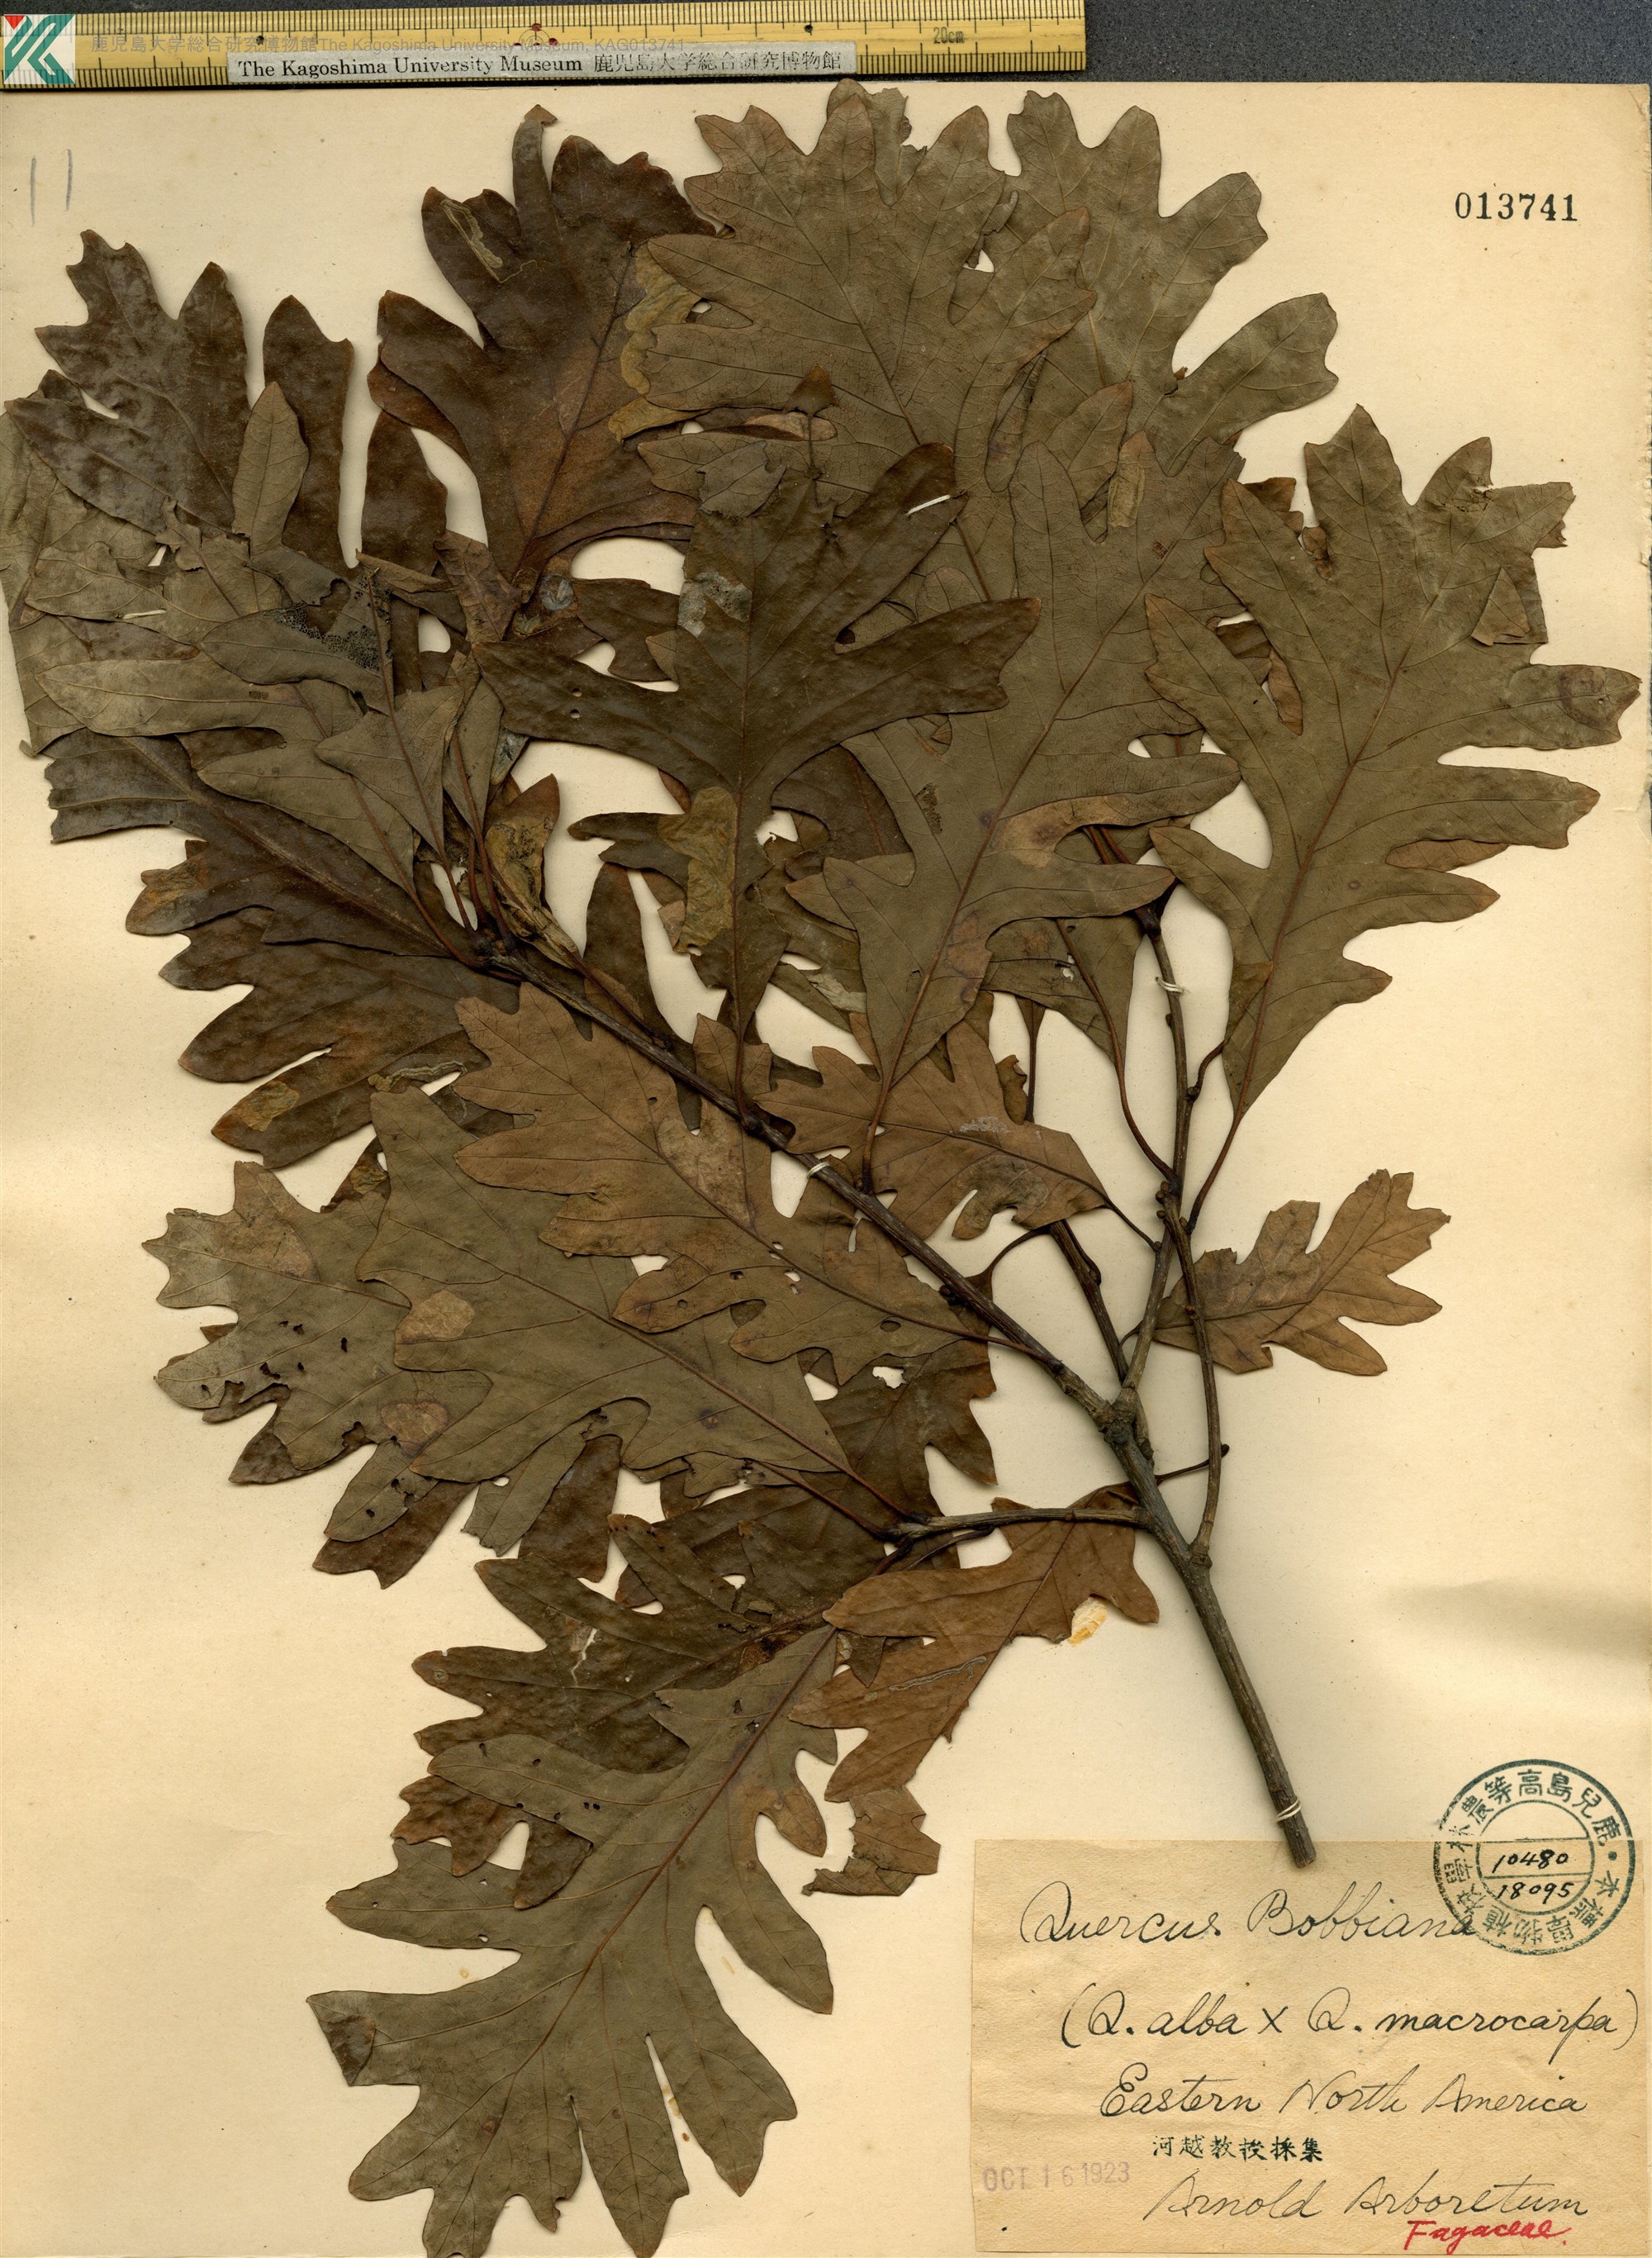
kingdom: Plantae
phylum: Tracheophyta
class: Magnoliopsida
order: Fagales
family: Fagaceae
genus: Quercus
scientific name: Quercus
